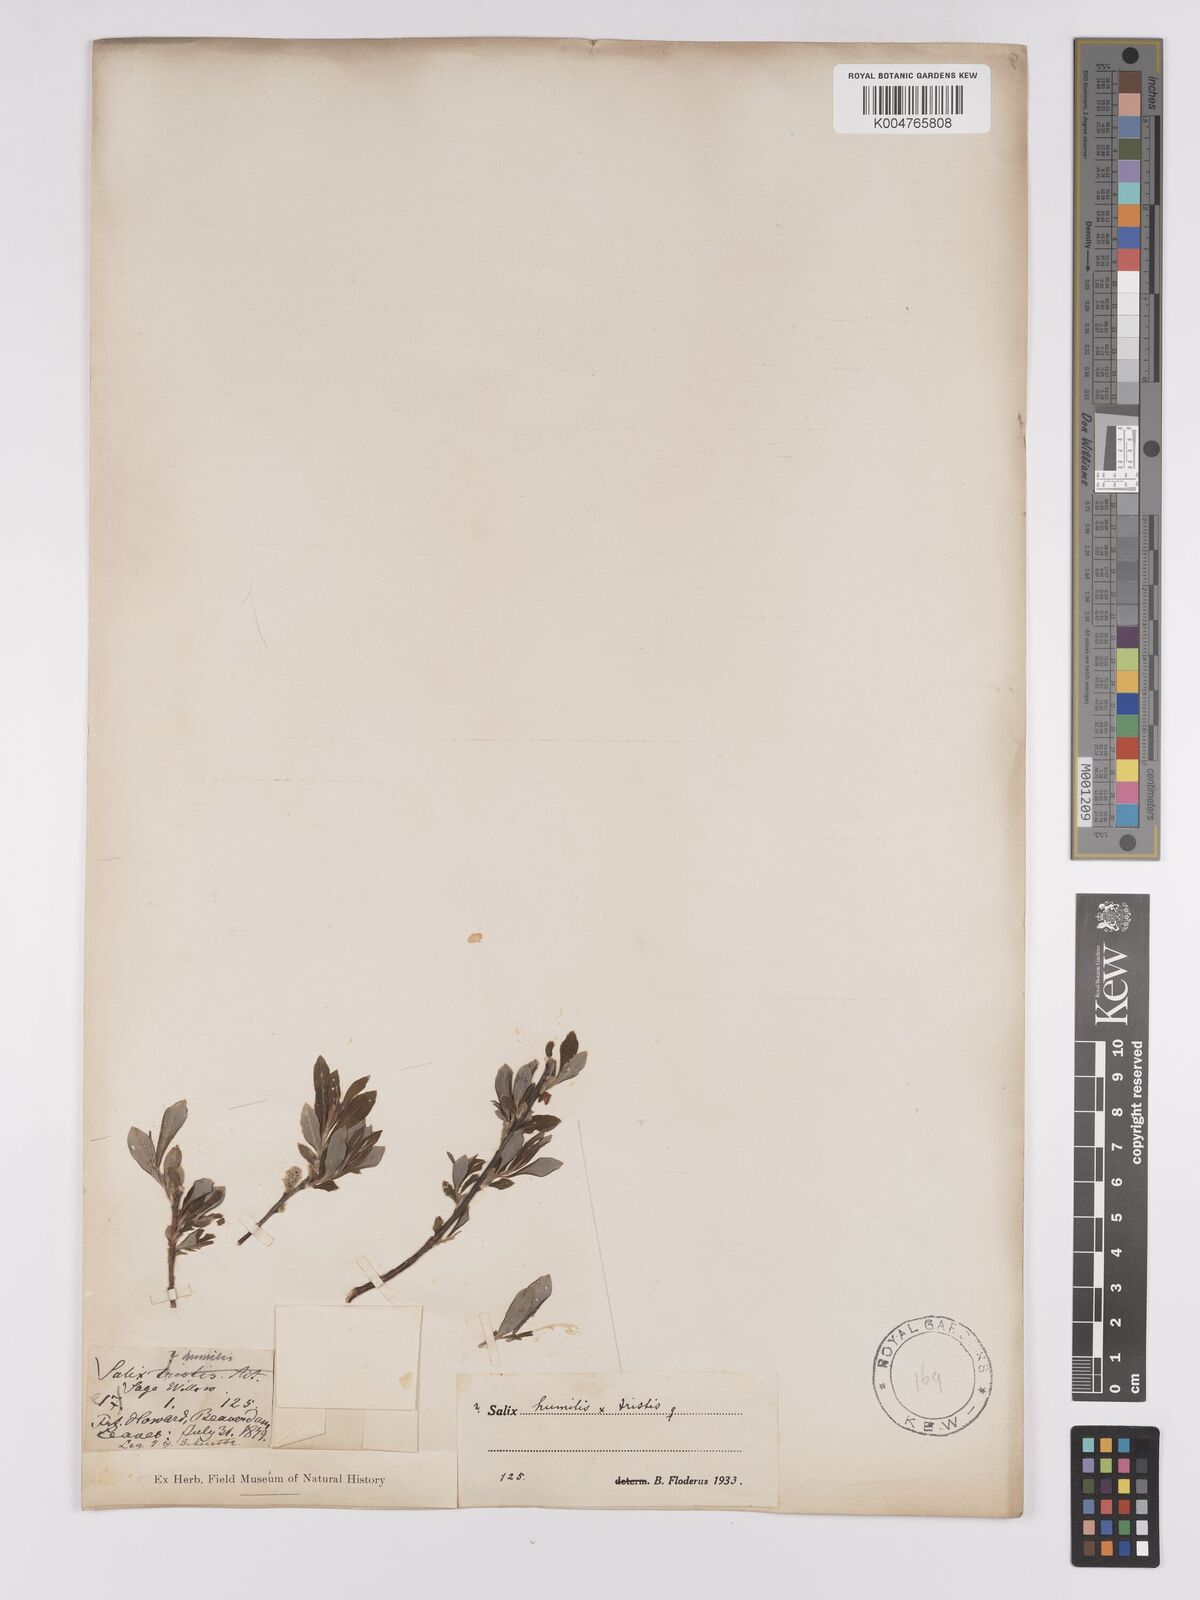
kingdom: Plantae
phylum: Tracheophyta
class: Magnoliopsida
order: Malpighiales
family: Salicaceae
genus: Salix
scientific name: Salix
